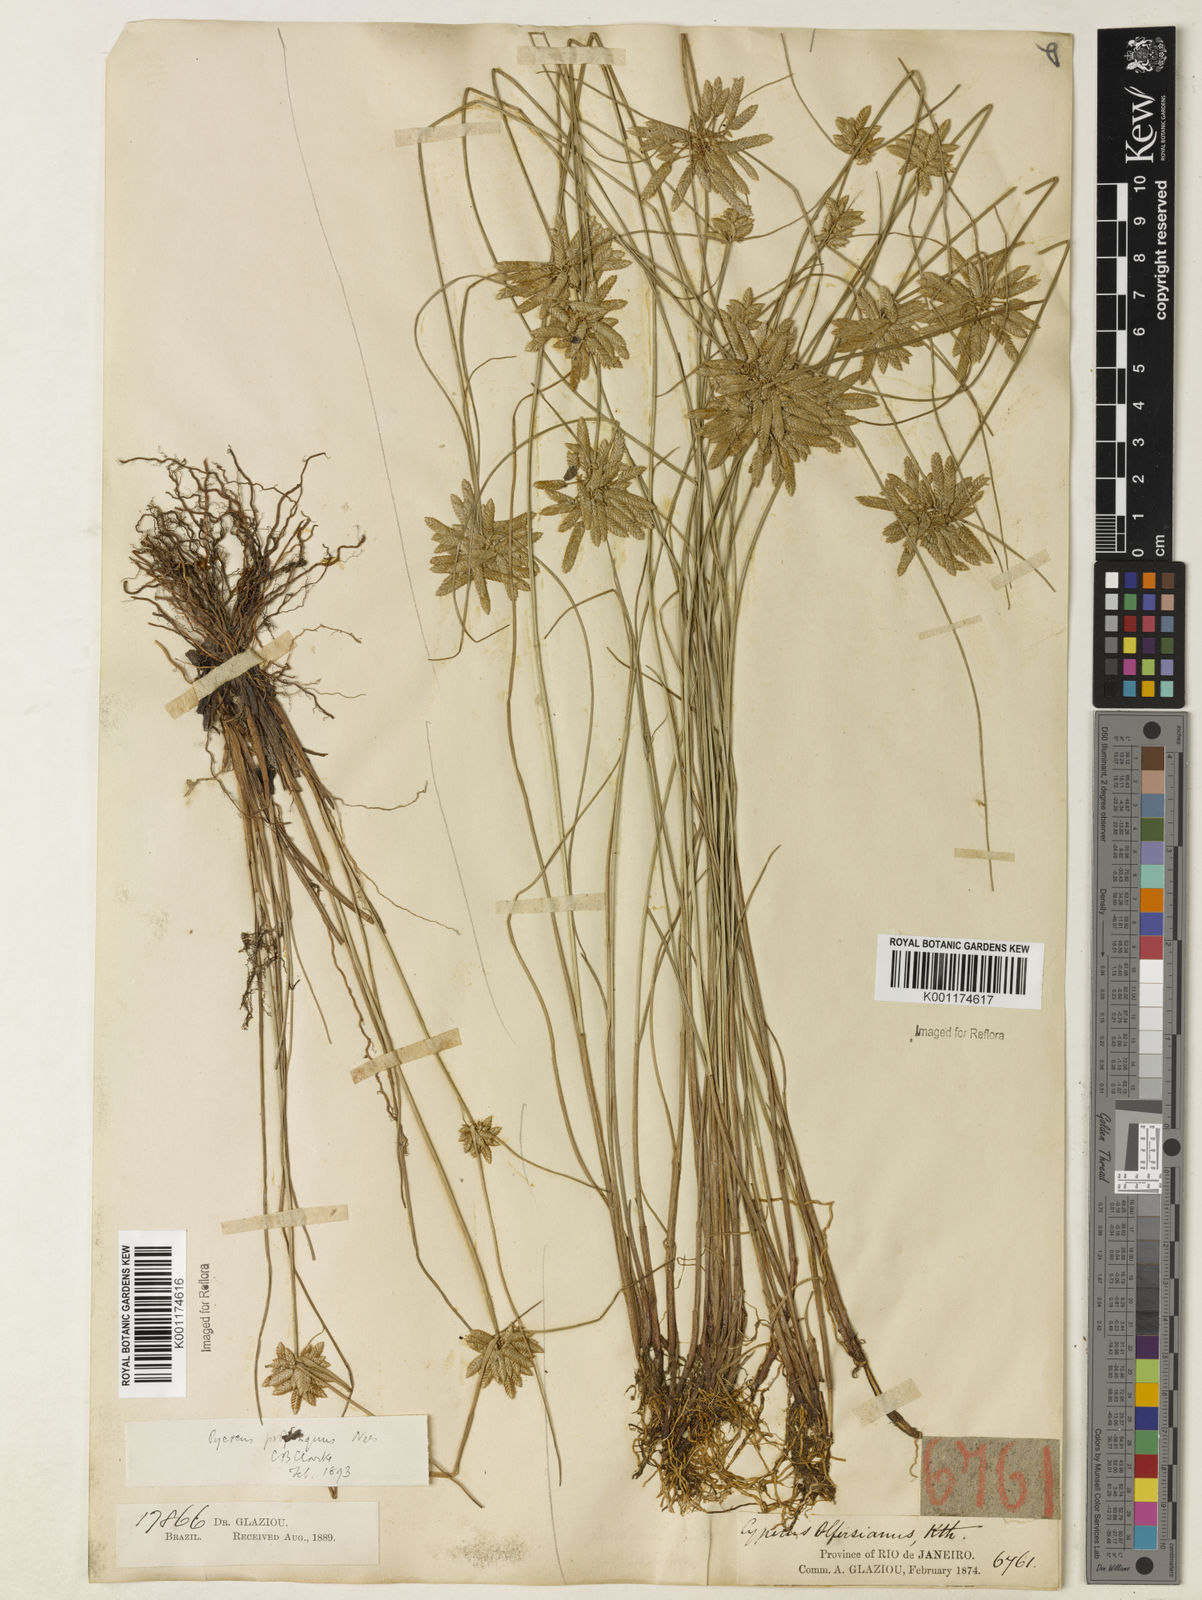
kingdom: Plantae
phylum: Tracheophyta
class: Liliopsida
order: Poales
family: Cyperaceae
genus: Cyperus
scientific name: Cyperus
